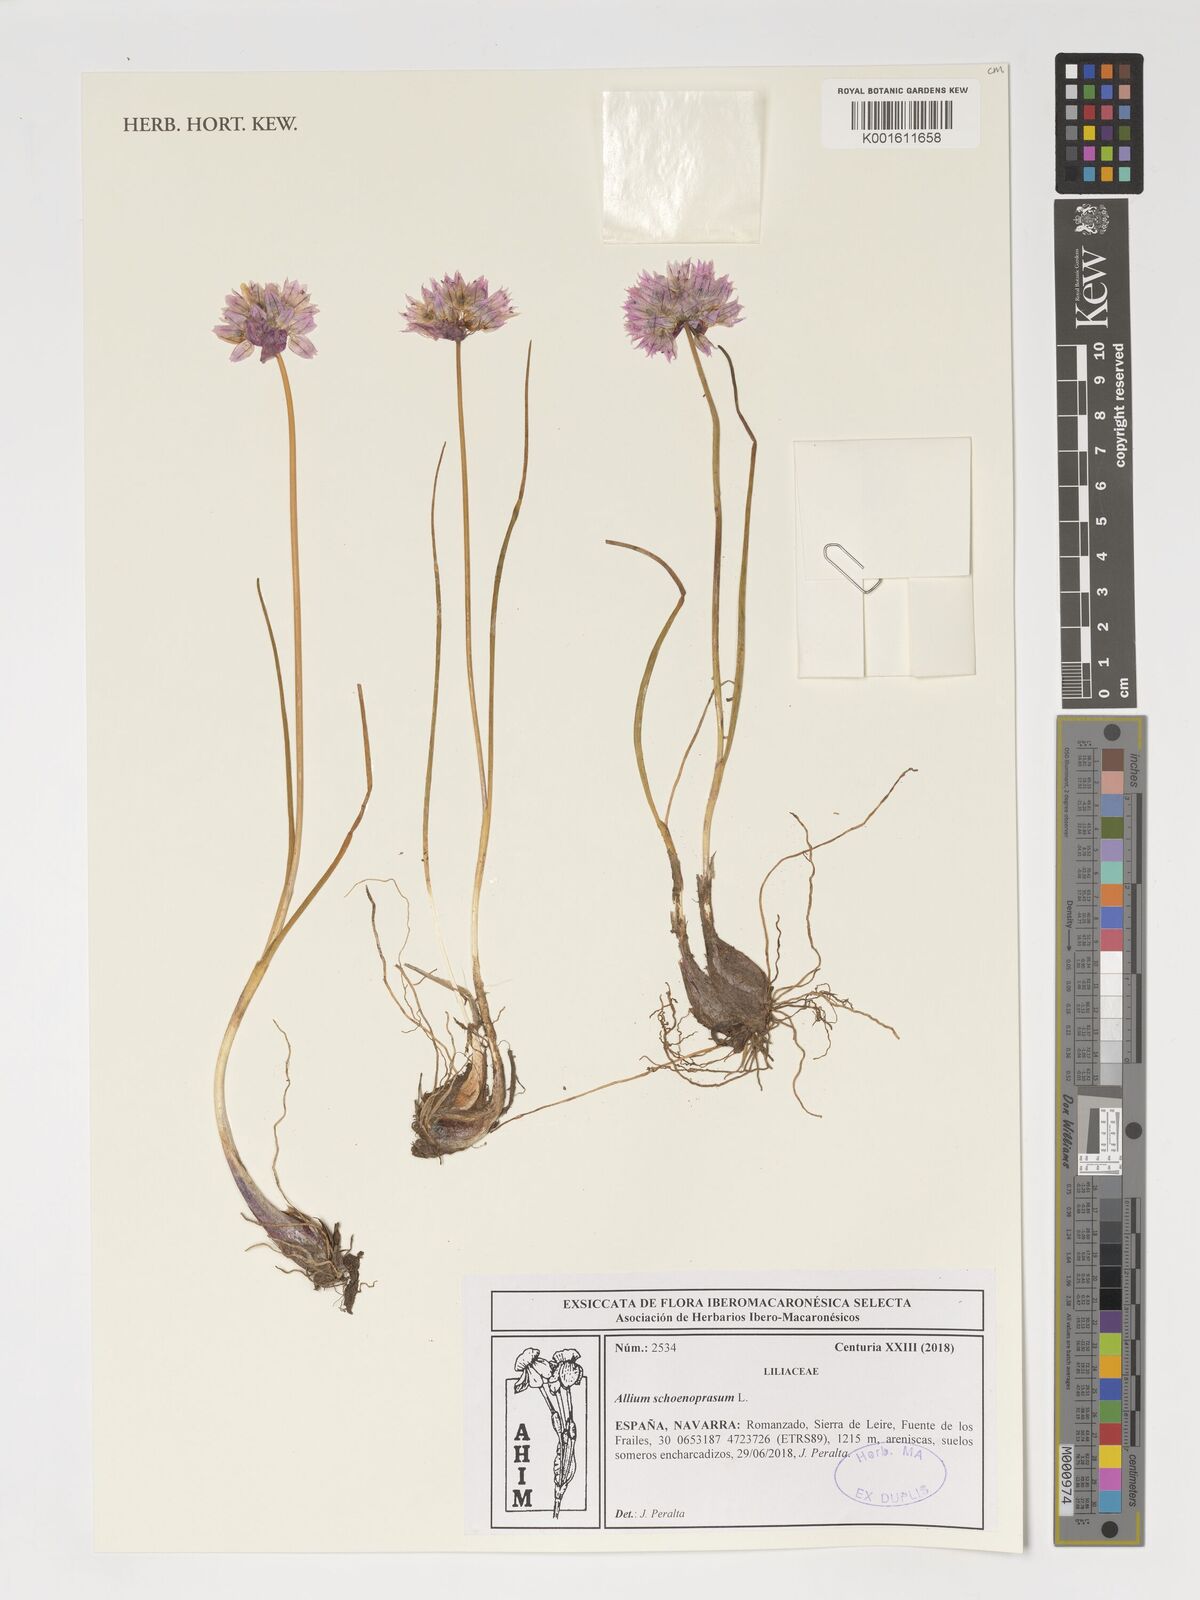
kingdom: Plantae
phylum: Tracheophyta
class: Liliopsida
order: Asparagales
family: Amaryllidaceae
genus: Allium
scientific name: Allium schoenoprasum
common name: Chives
